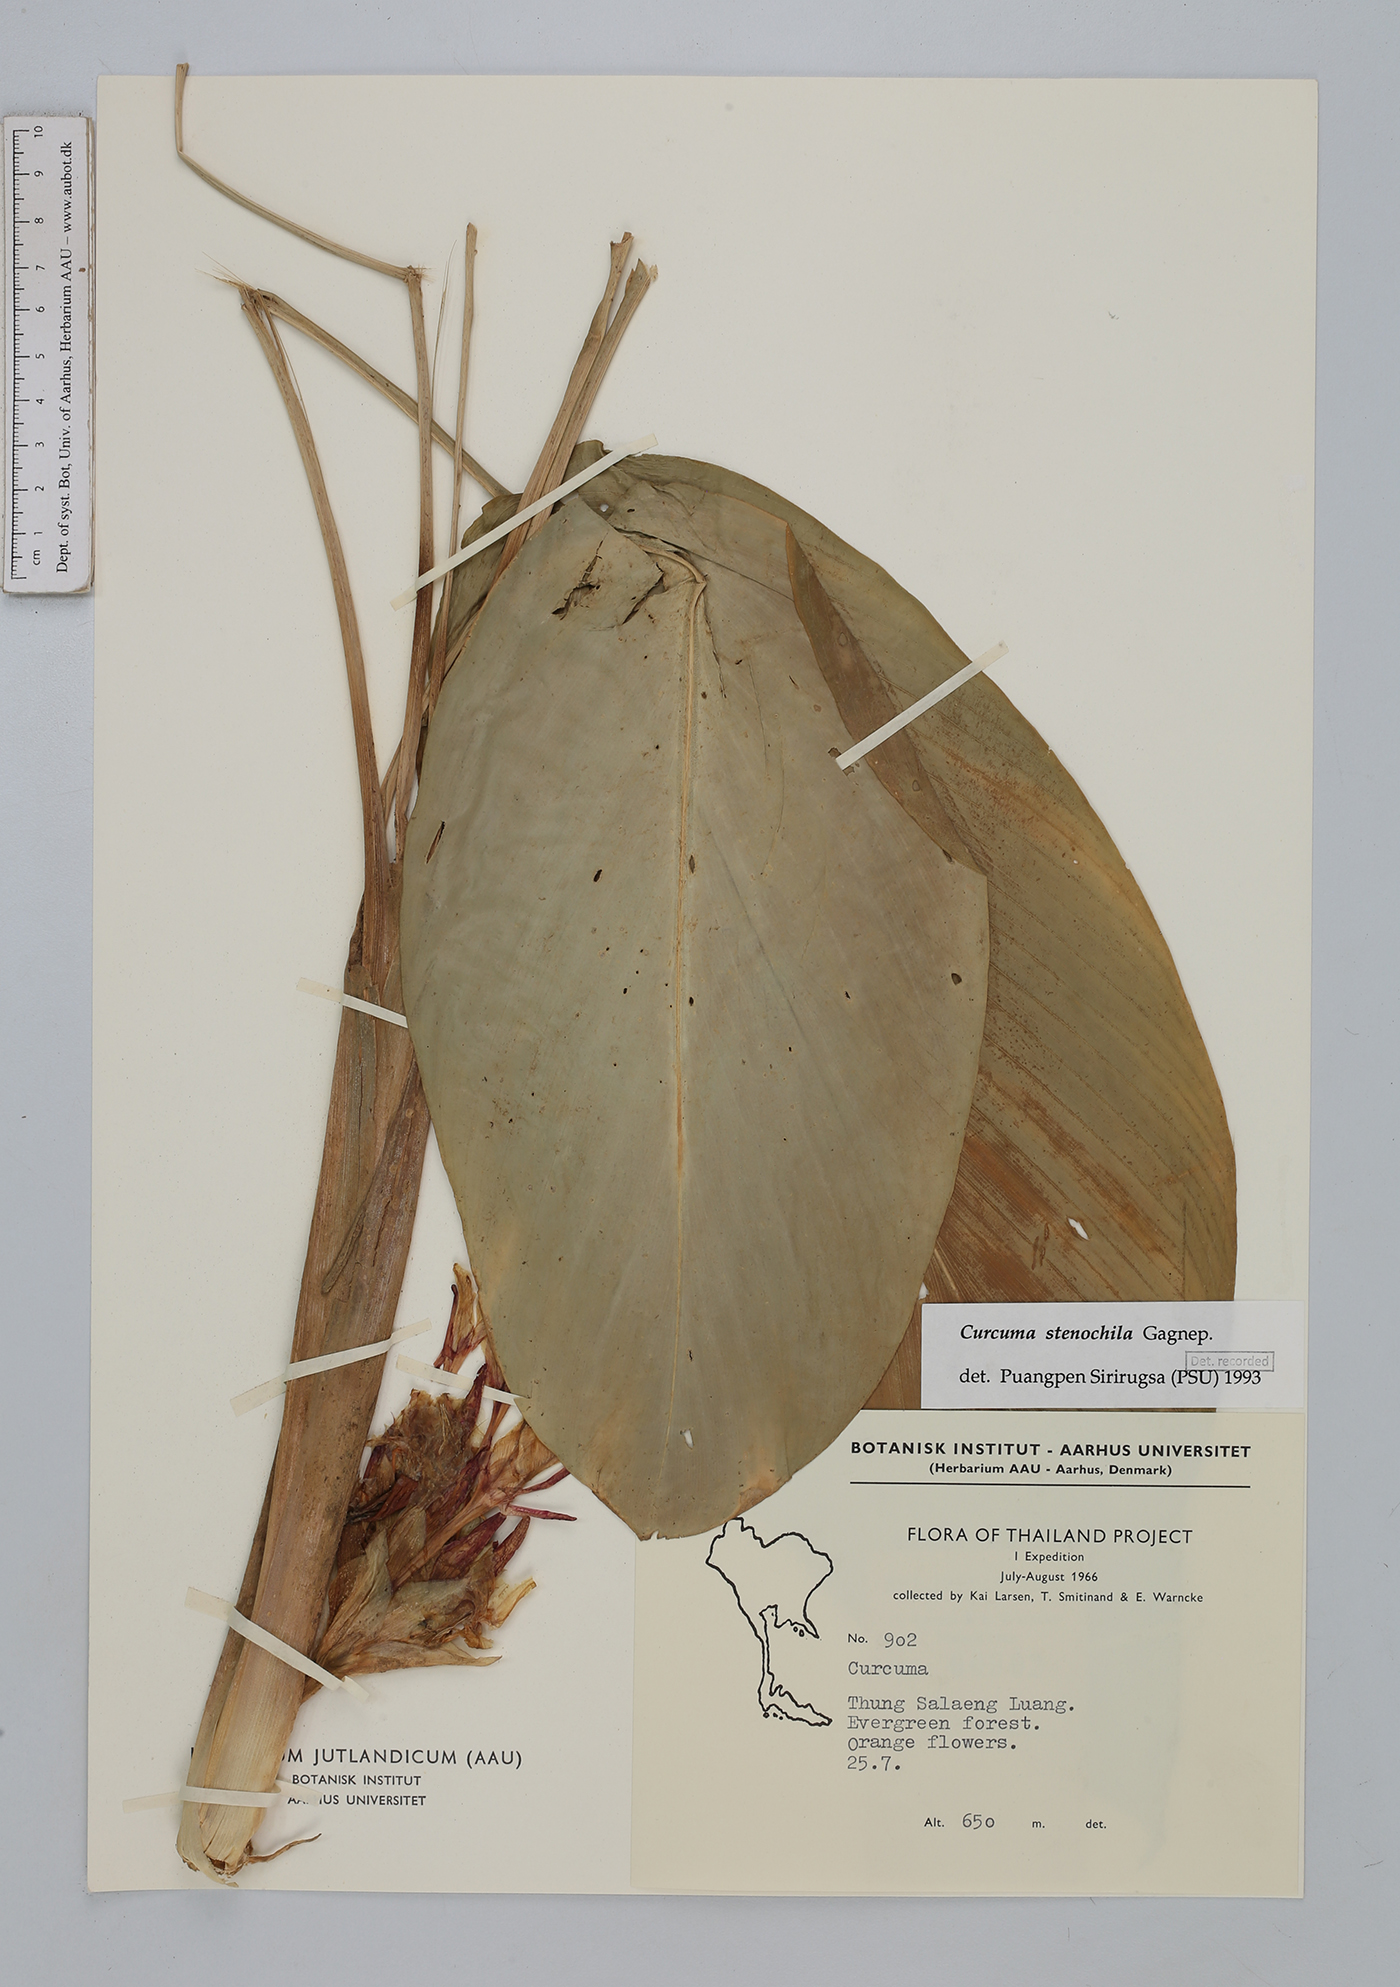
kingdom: Plantae
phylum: Tracheophyta
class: Liliopsida
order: Zingiberales
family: Zingiberaceae
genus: Curcuma
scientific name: Curcuma stenochila
